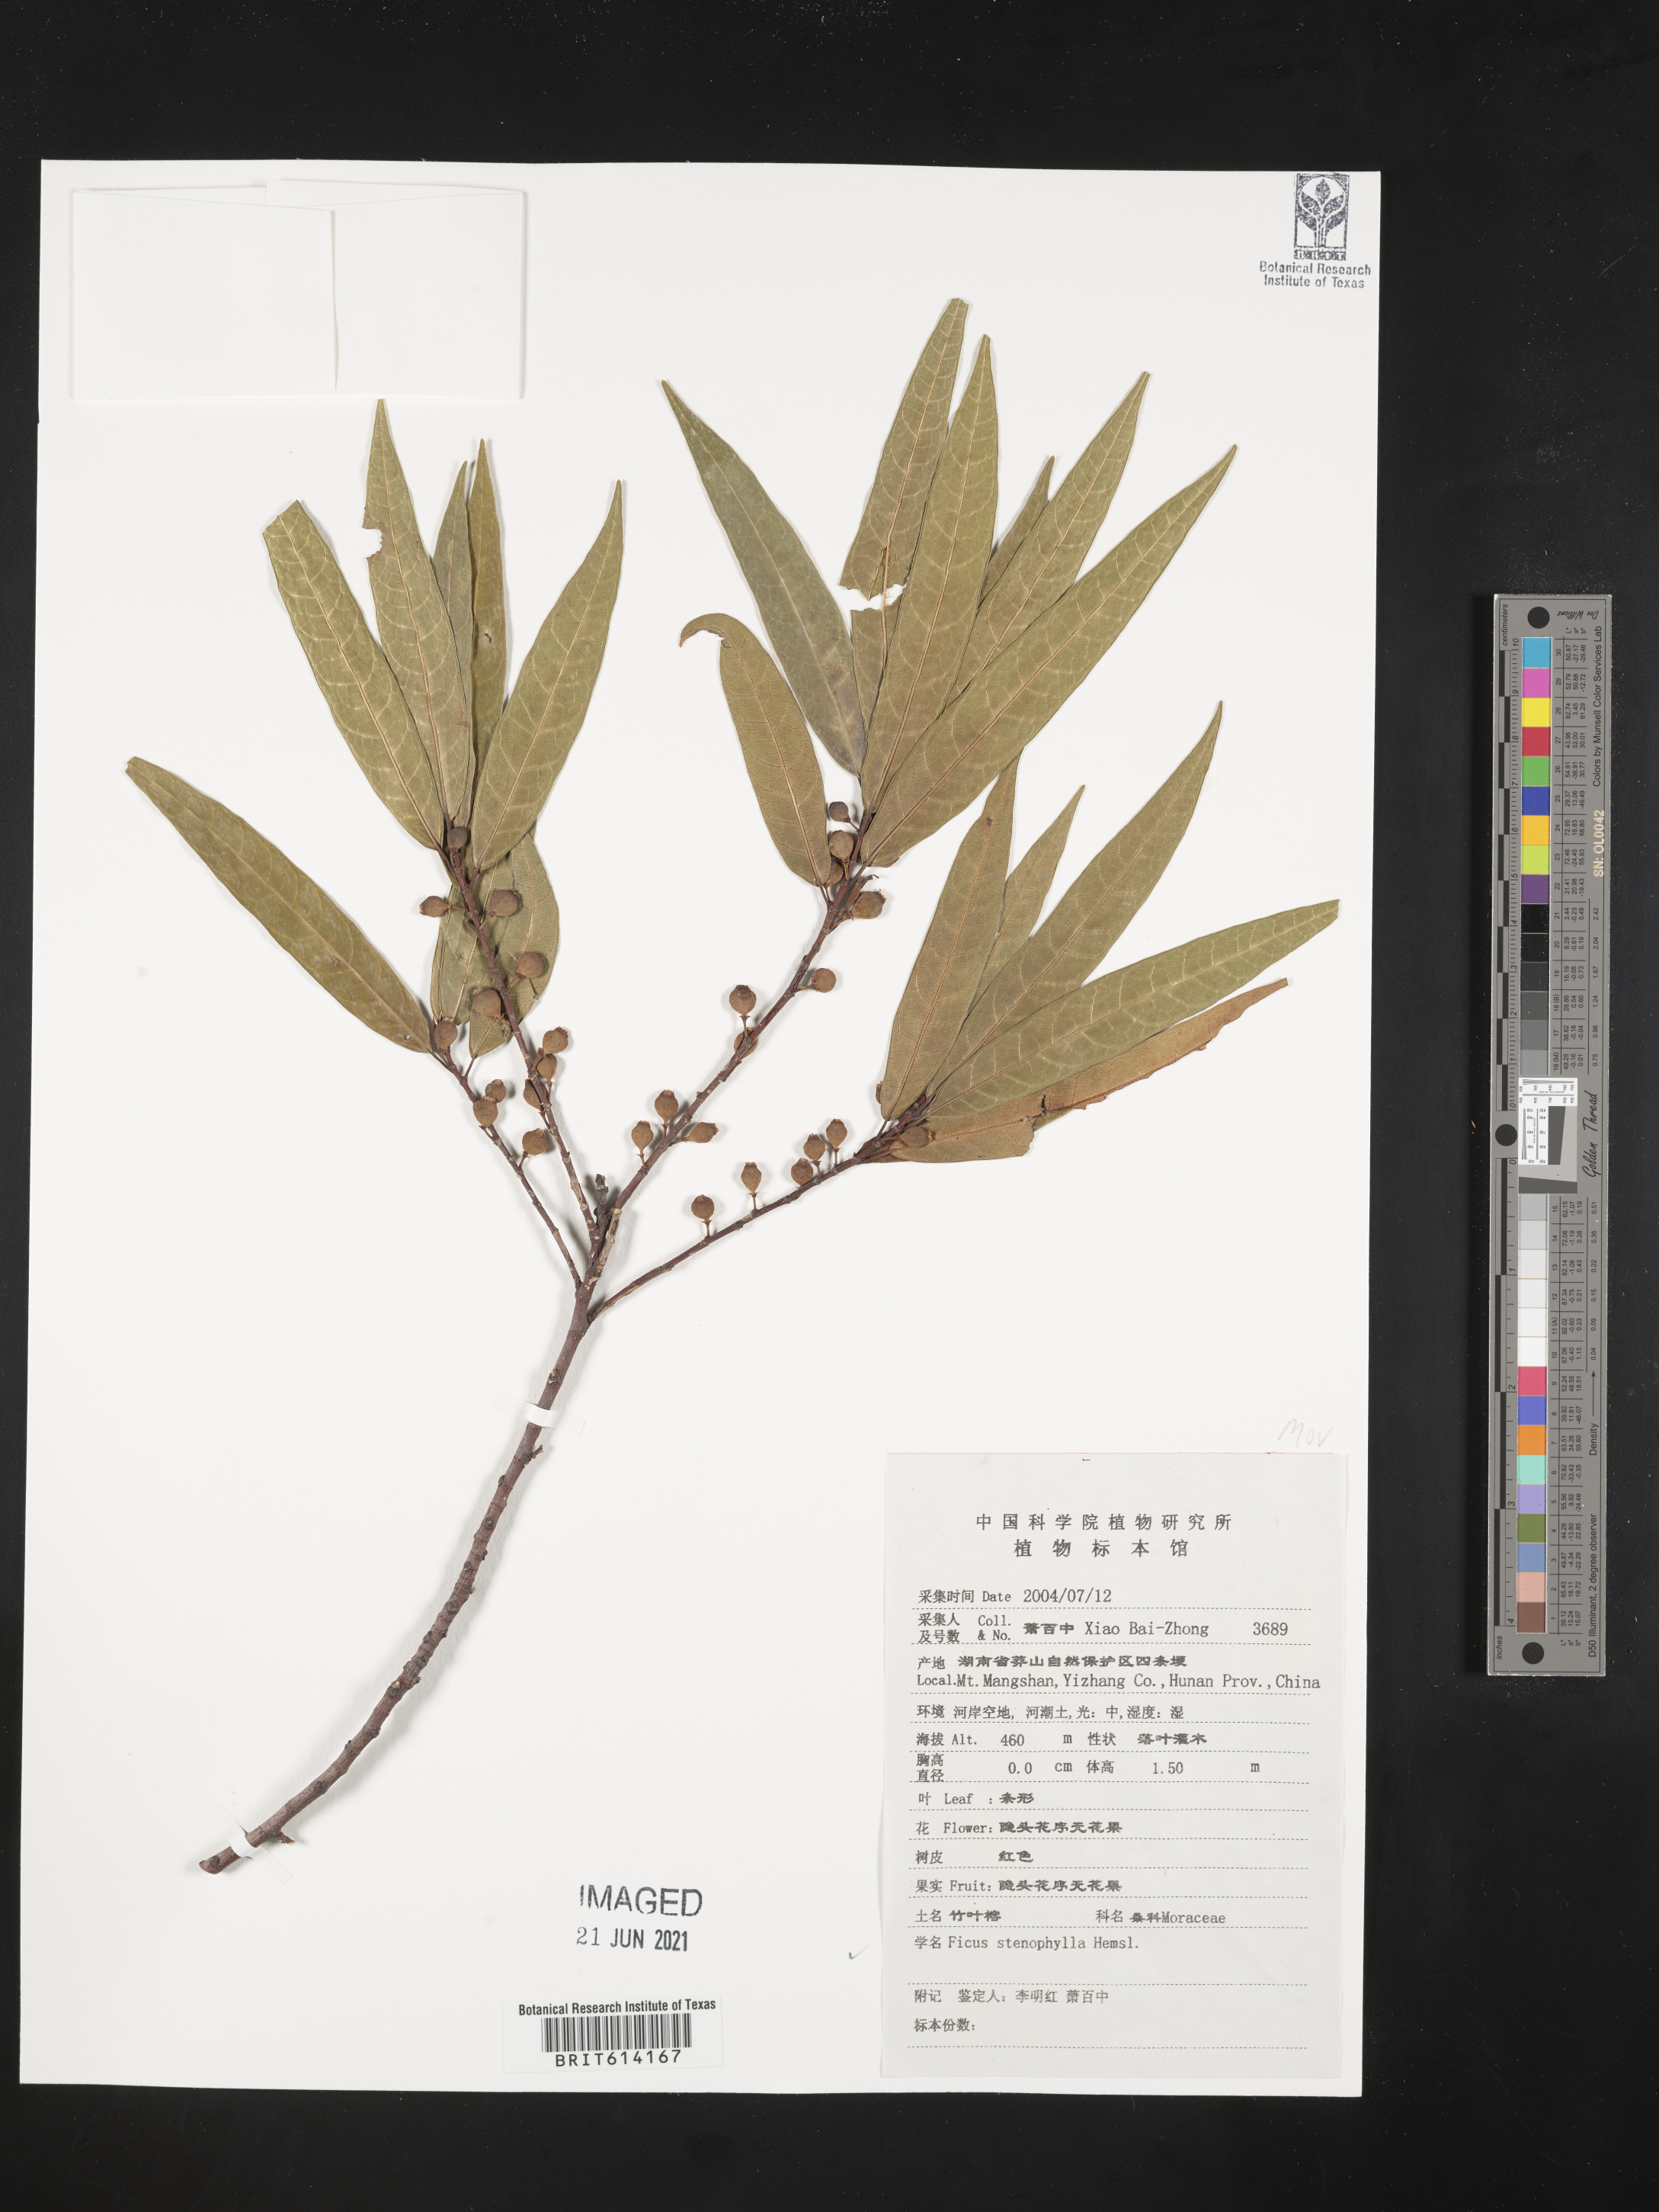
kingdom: Plantae
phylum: Tracheophyta
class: Magnoliopsida
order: Rosales
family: Moraceae
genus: Ficus
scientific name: Ficus macropodocarpa
